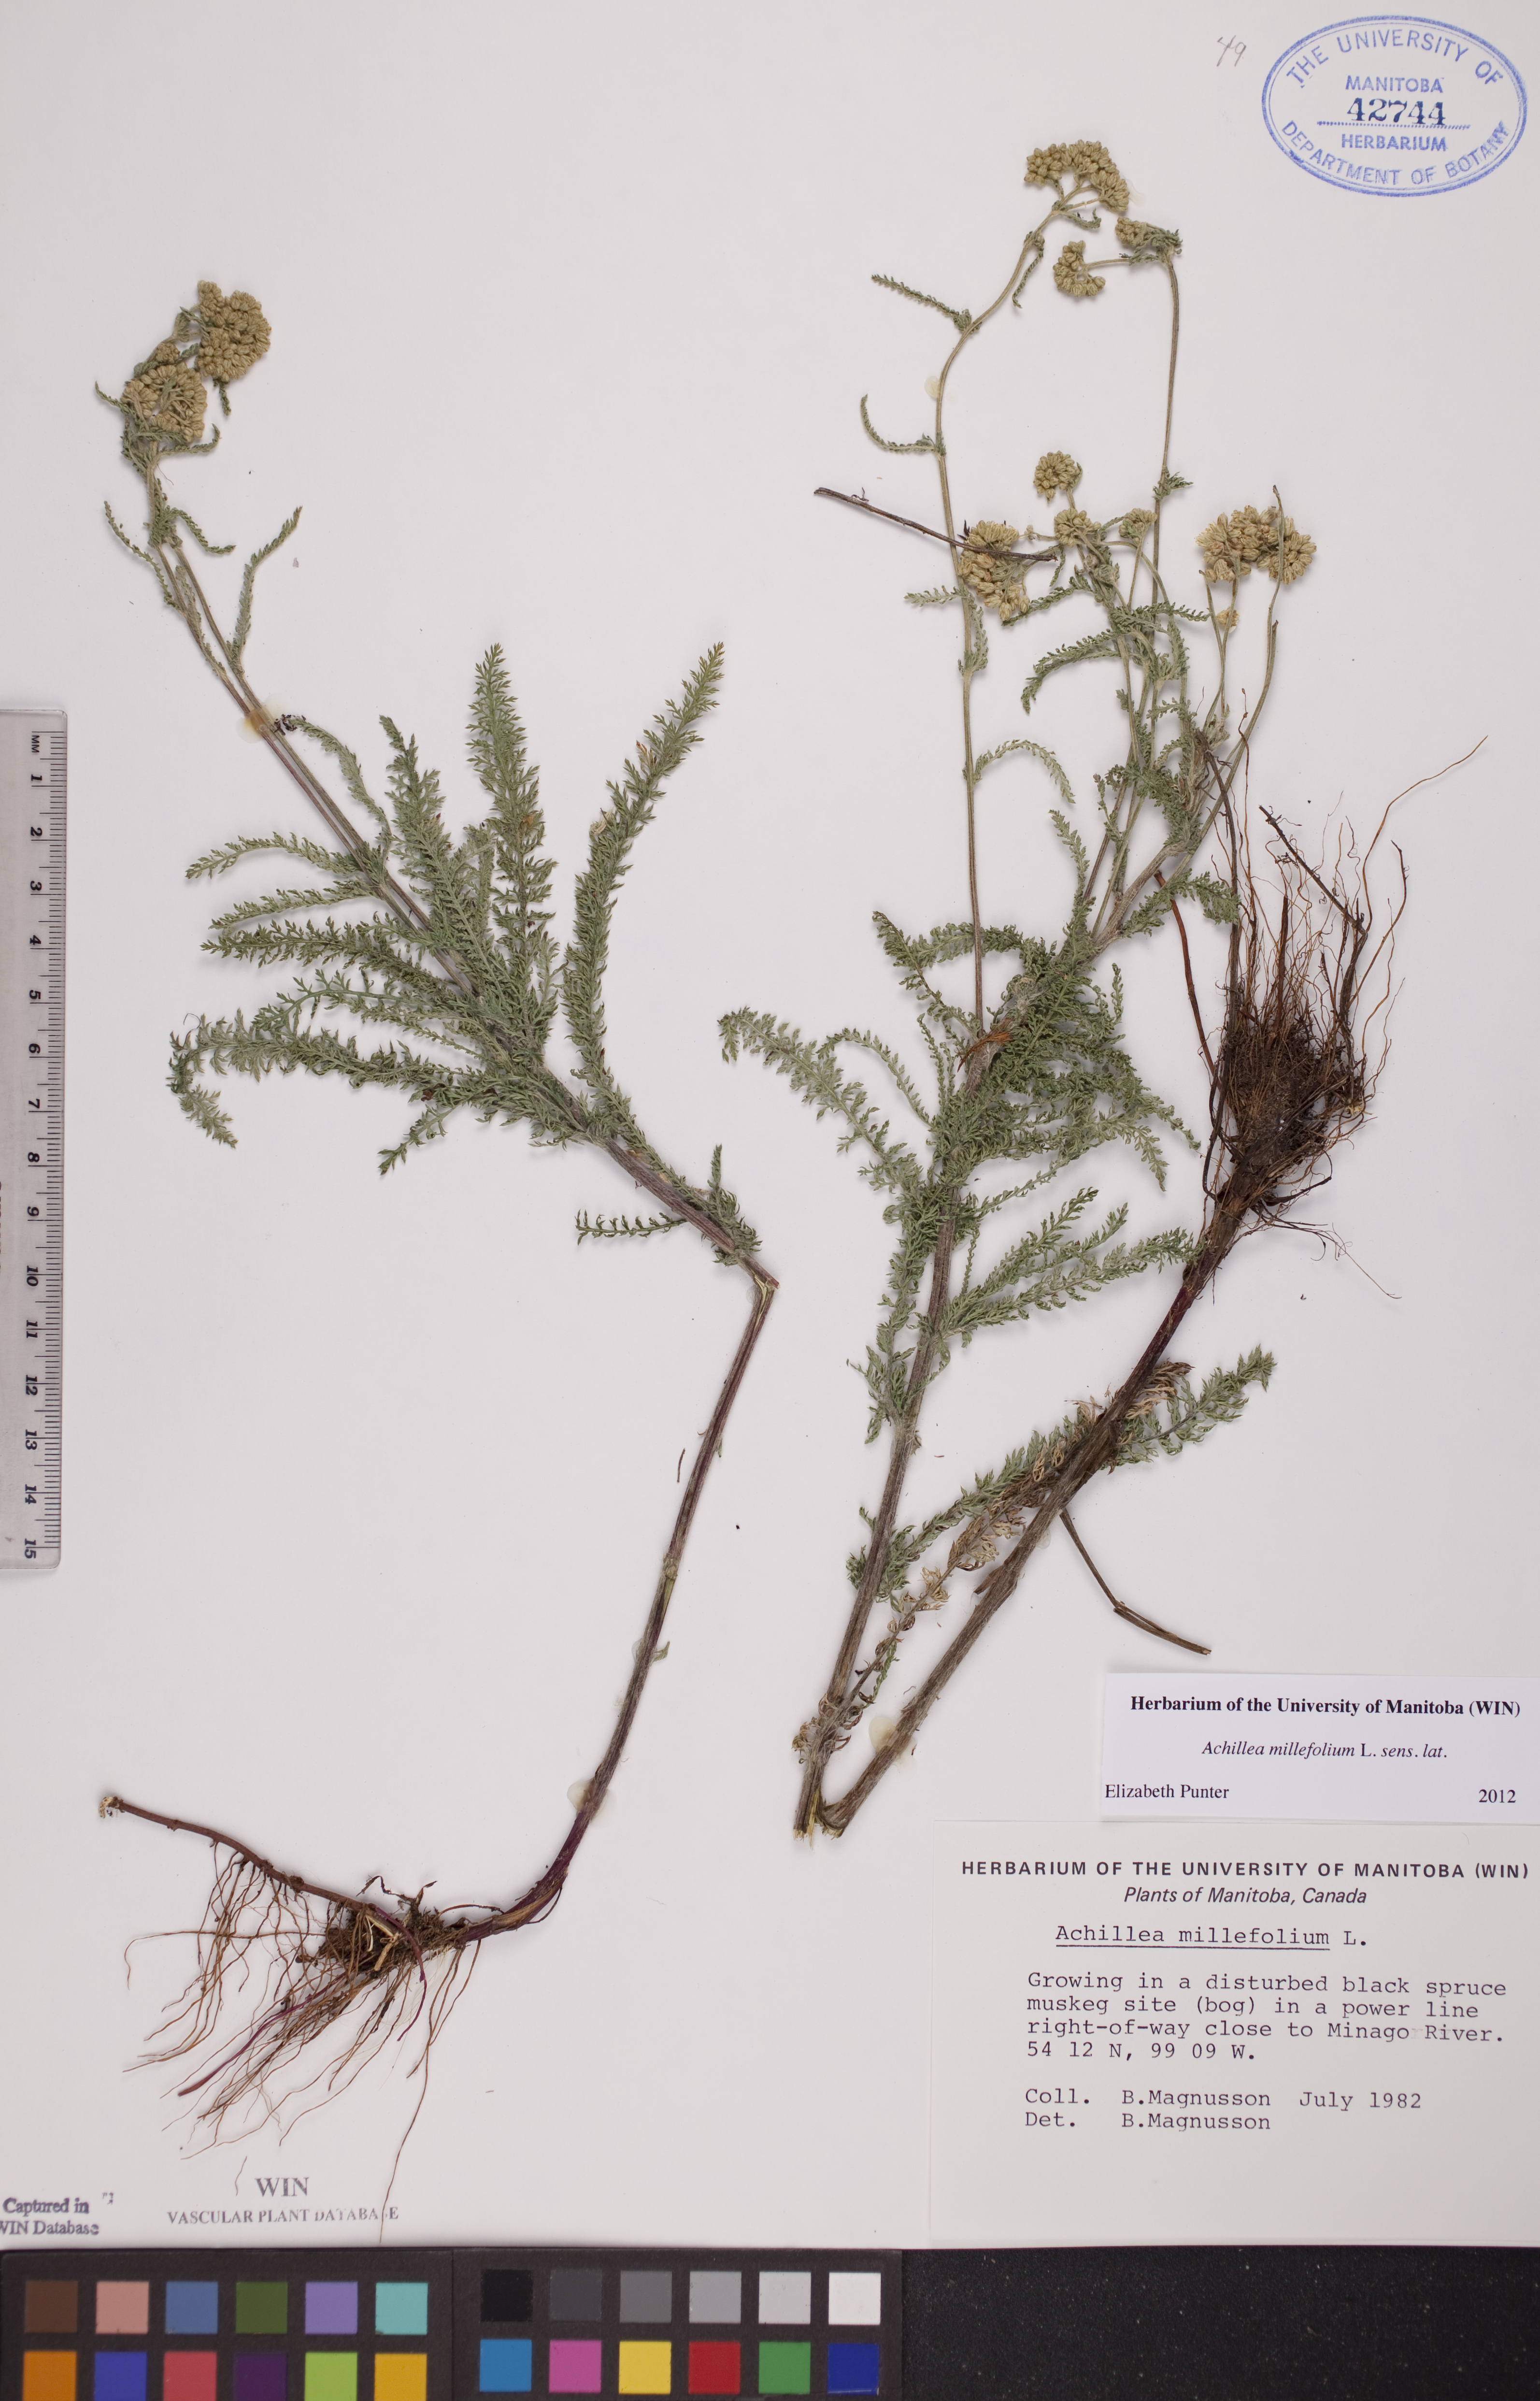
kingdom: Plantae
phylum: Tracheophyta
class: Magnoliopsida
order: Asterales
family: Asteraceae
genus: Achillea
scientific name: Achillea millefolium
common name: Yarrow
